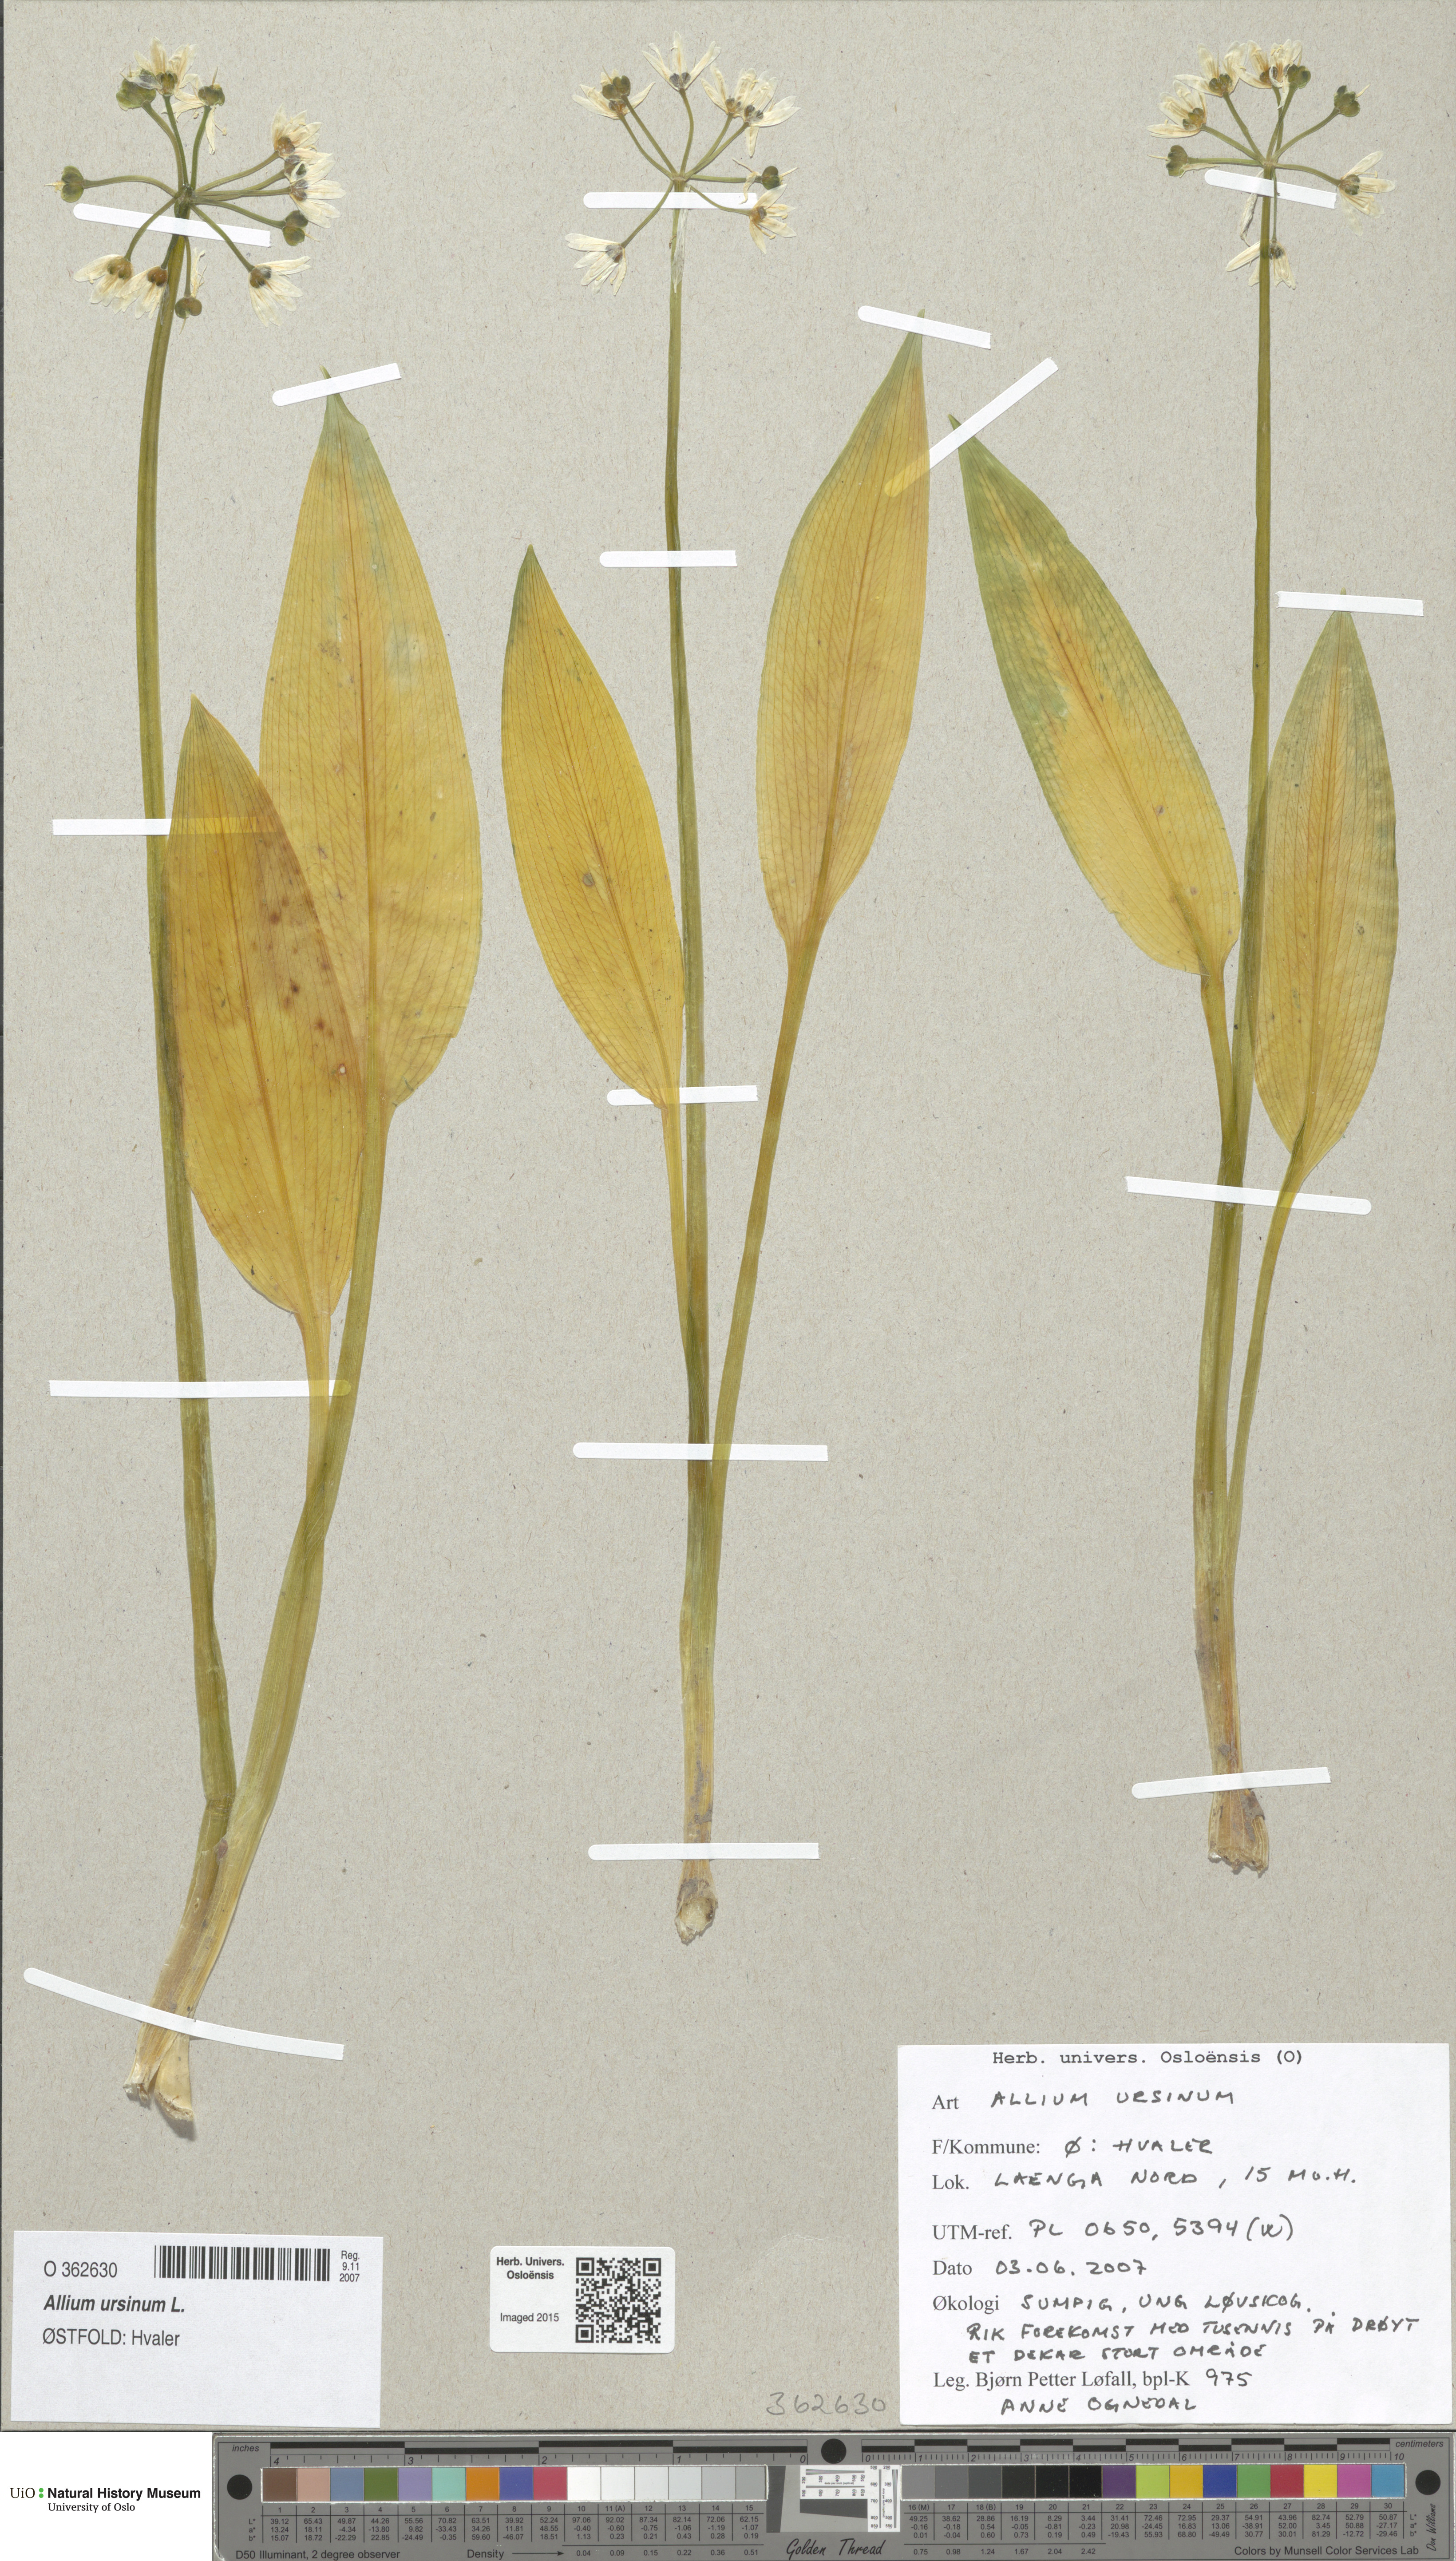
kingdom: Plantae
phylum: Tracheophyta
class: Liliopsida
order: Asparagales
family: Amaryllidaceae
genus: Allium
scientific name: Allium ursinum
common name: Ramsons
